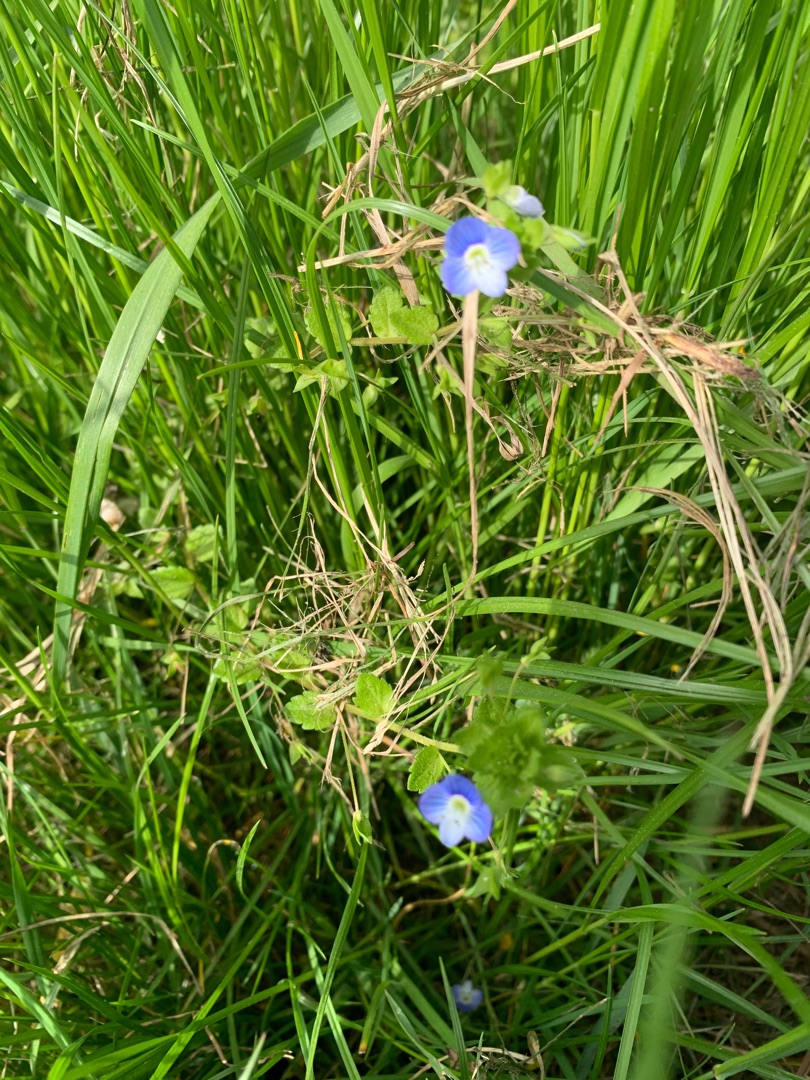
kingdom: Plantae
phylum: Tracheophyta
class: Magnoliopsida
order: Lamiales
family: Plantaginaceae
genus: Veronica
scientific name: Veronica filiformis
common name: Tråd-ærenpris
